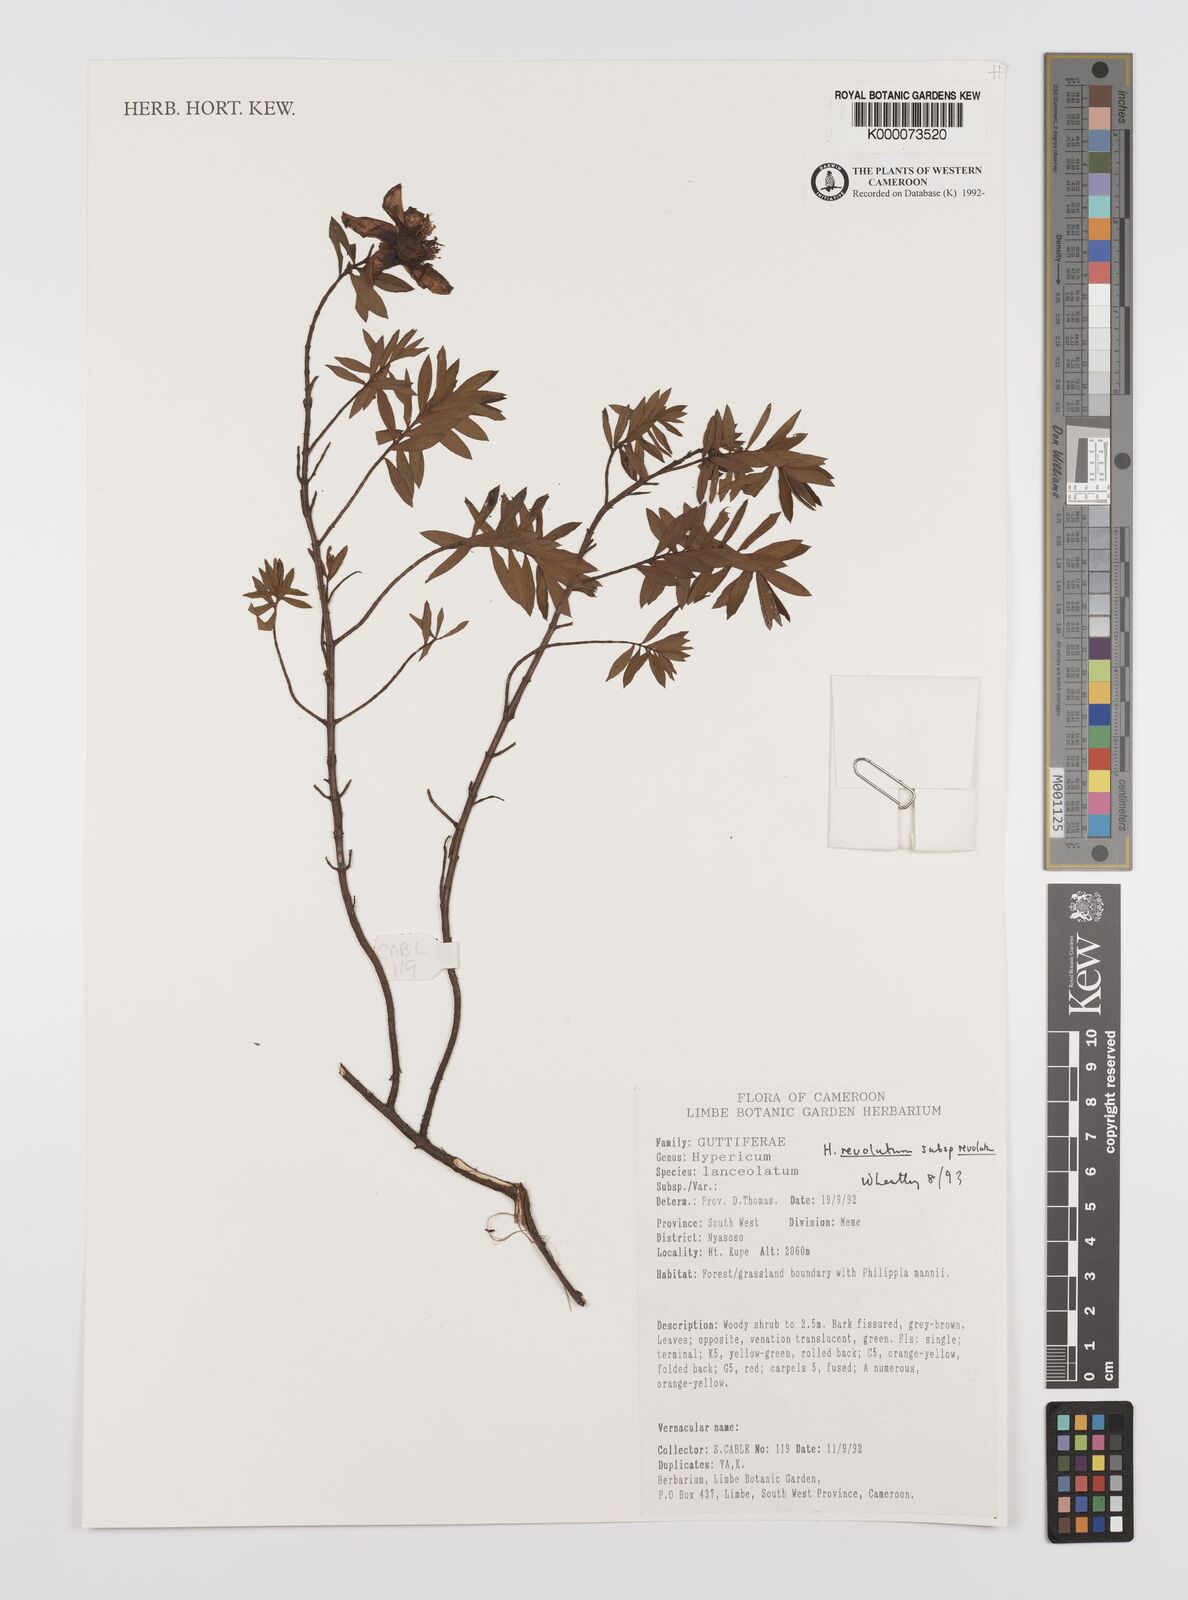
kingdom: Plantae
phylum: Tracheophyta
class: Magnoliopsida
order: Malpighiales
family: Hypericaceae
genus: Hypericum
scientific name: Hypericum revolutum
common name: Curry bush
